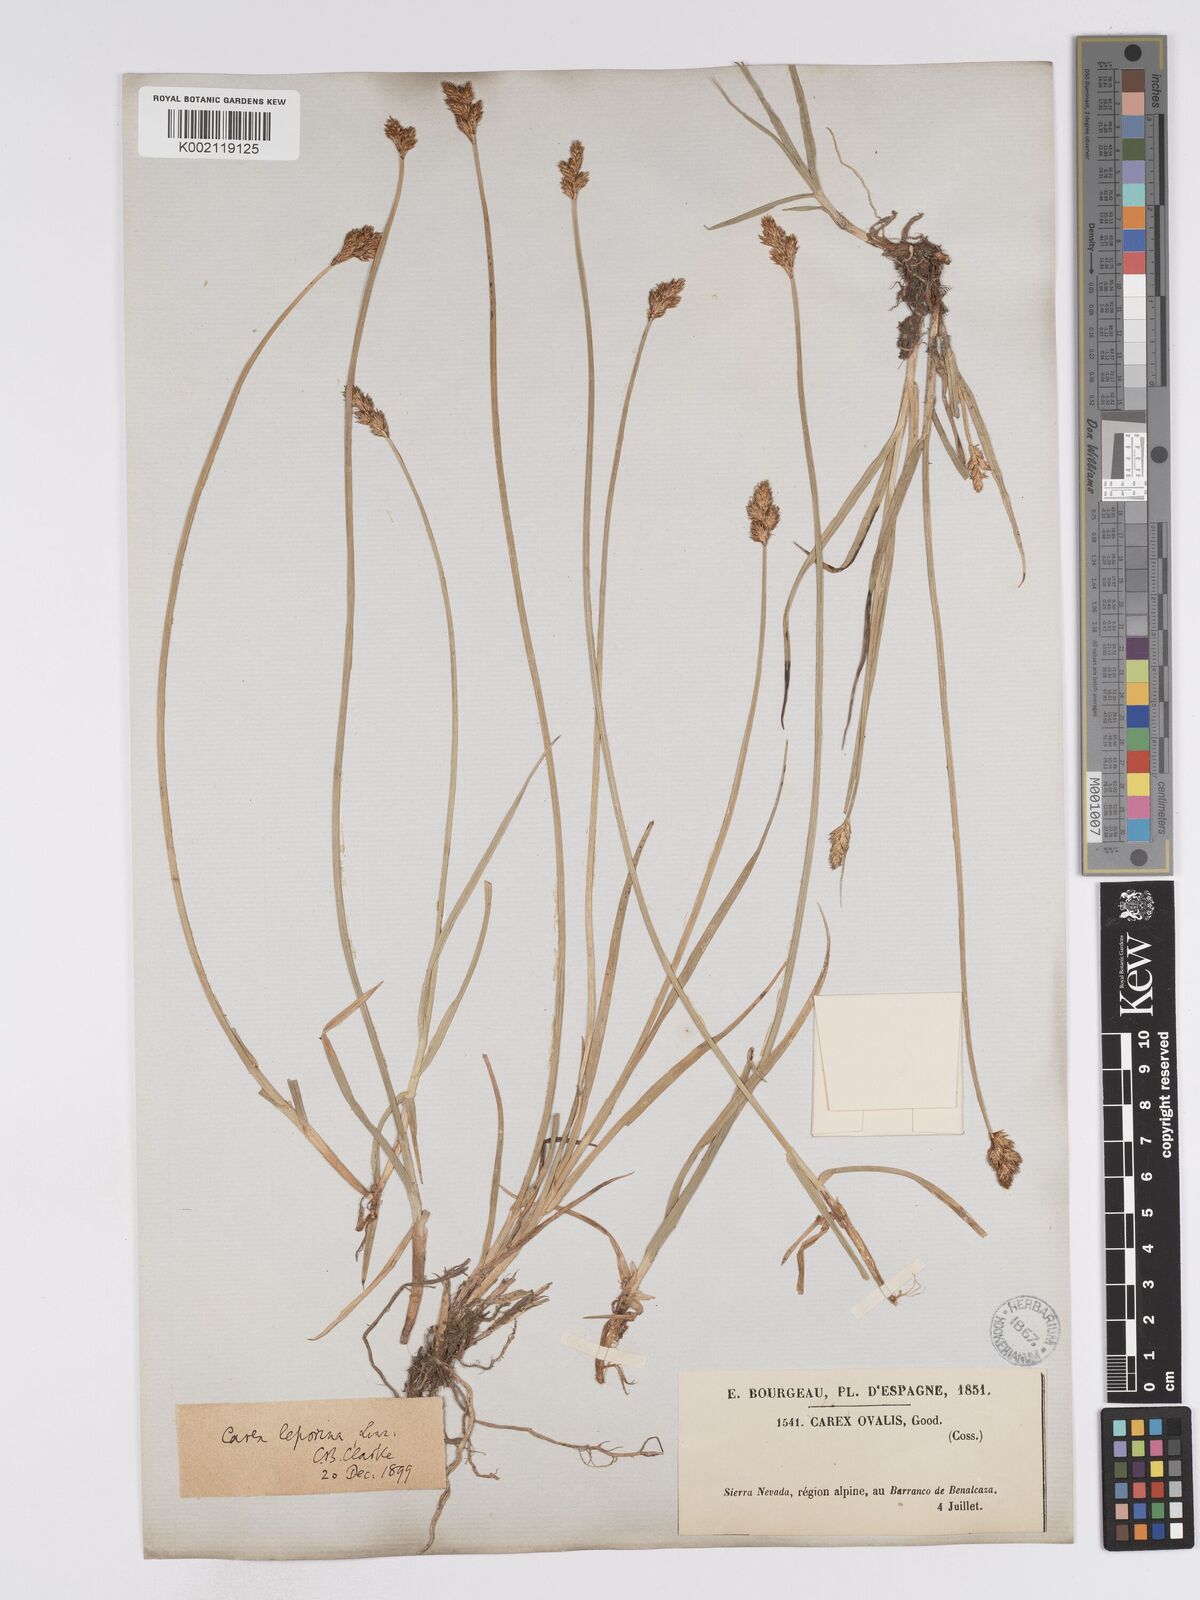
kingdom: Plantae
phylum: Tracheophyta
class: Liliopsida
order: Poales
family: Cyperaceae
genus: Carex
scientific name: Carex leporina
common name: Oval sedge
